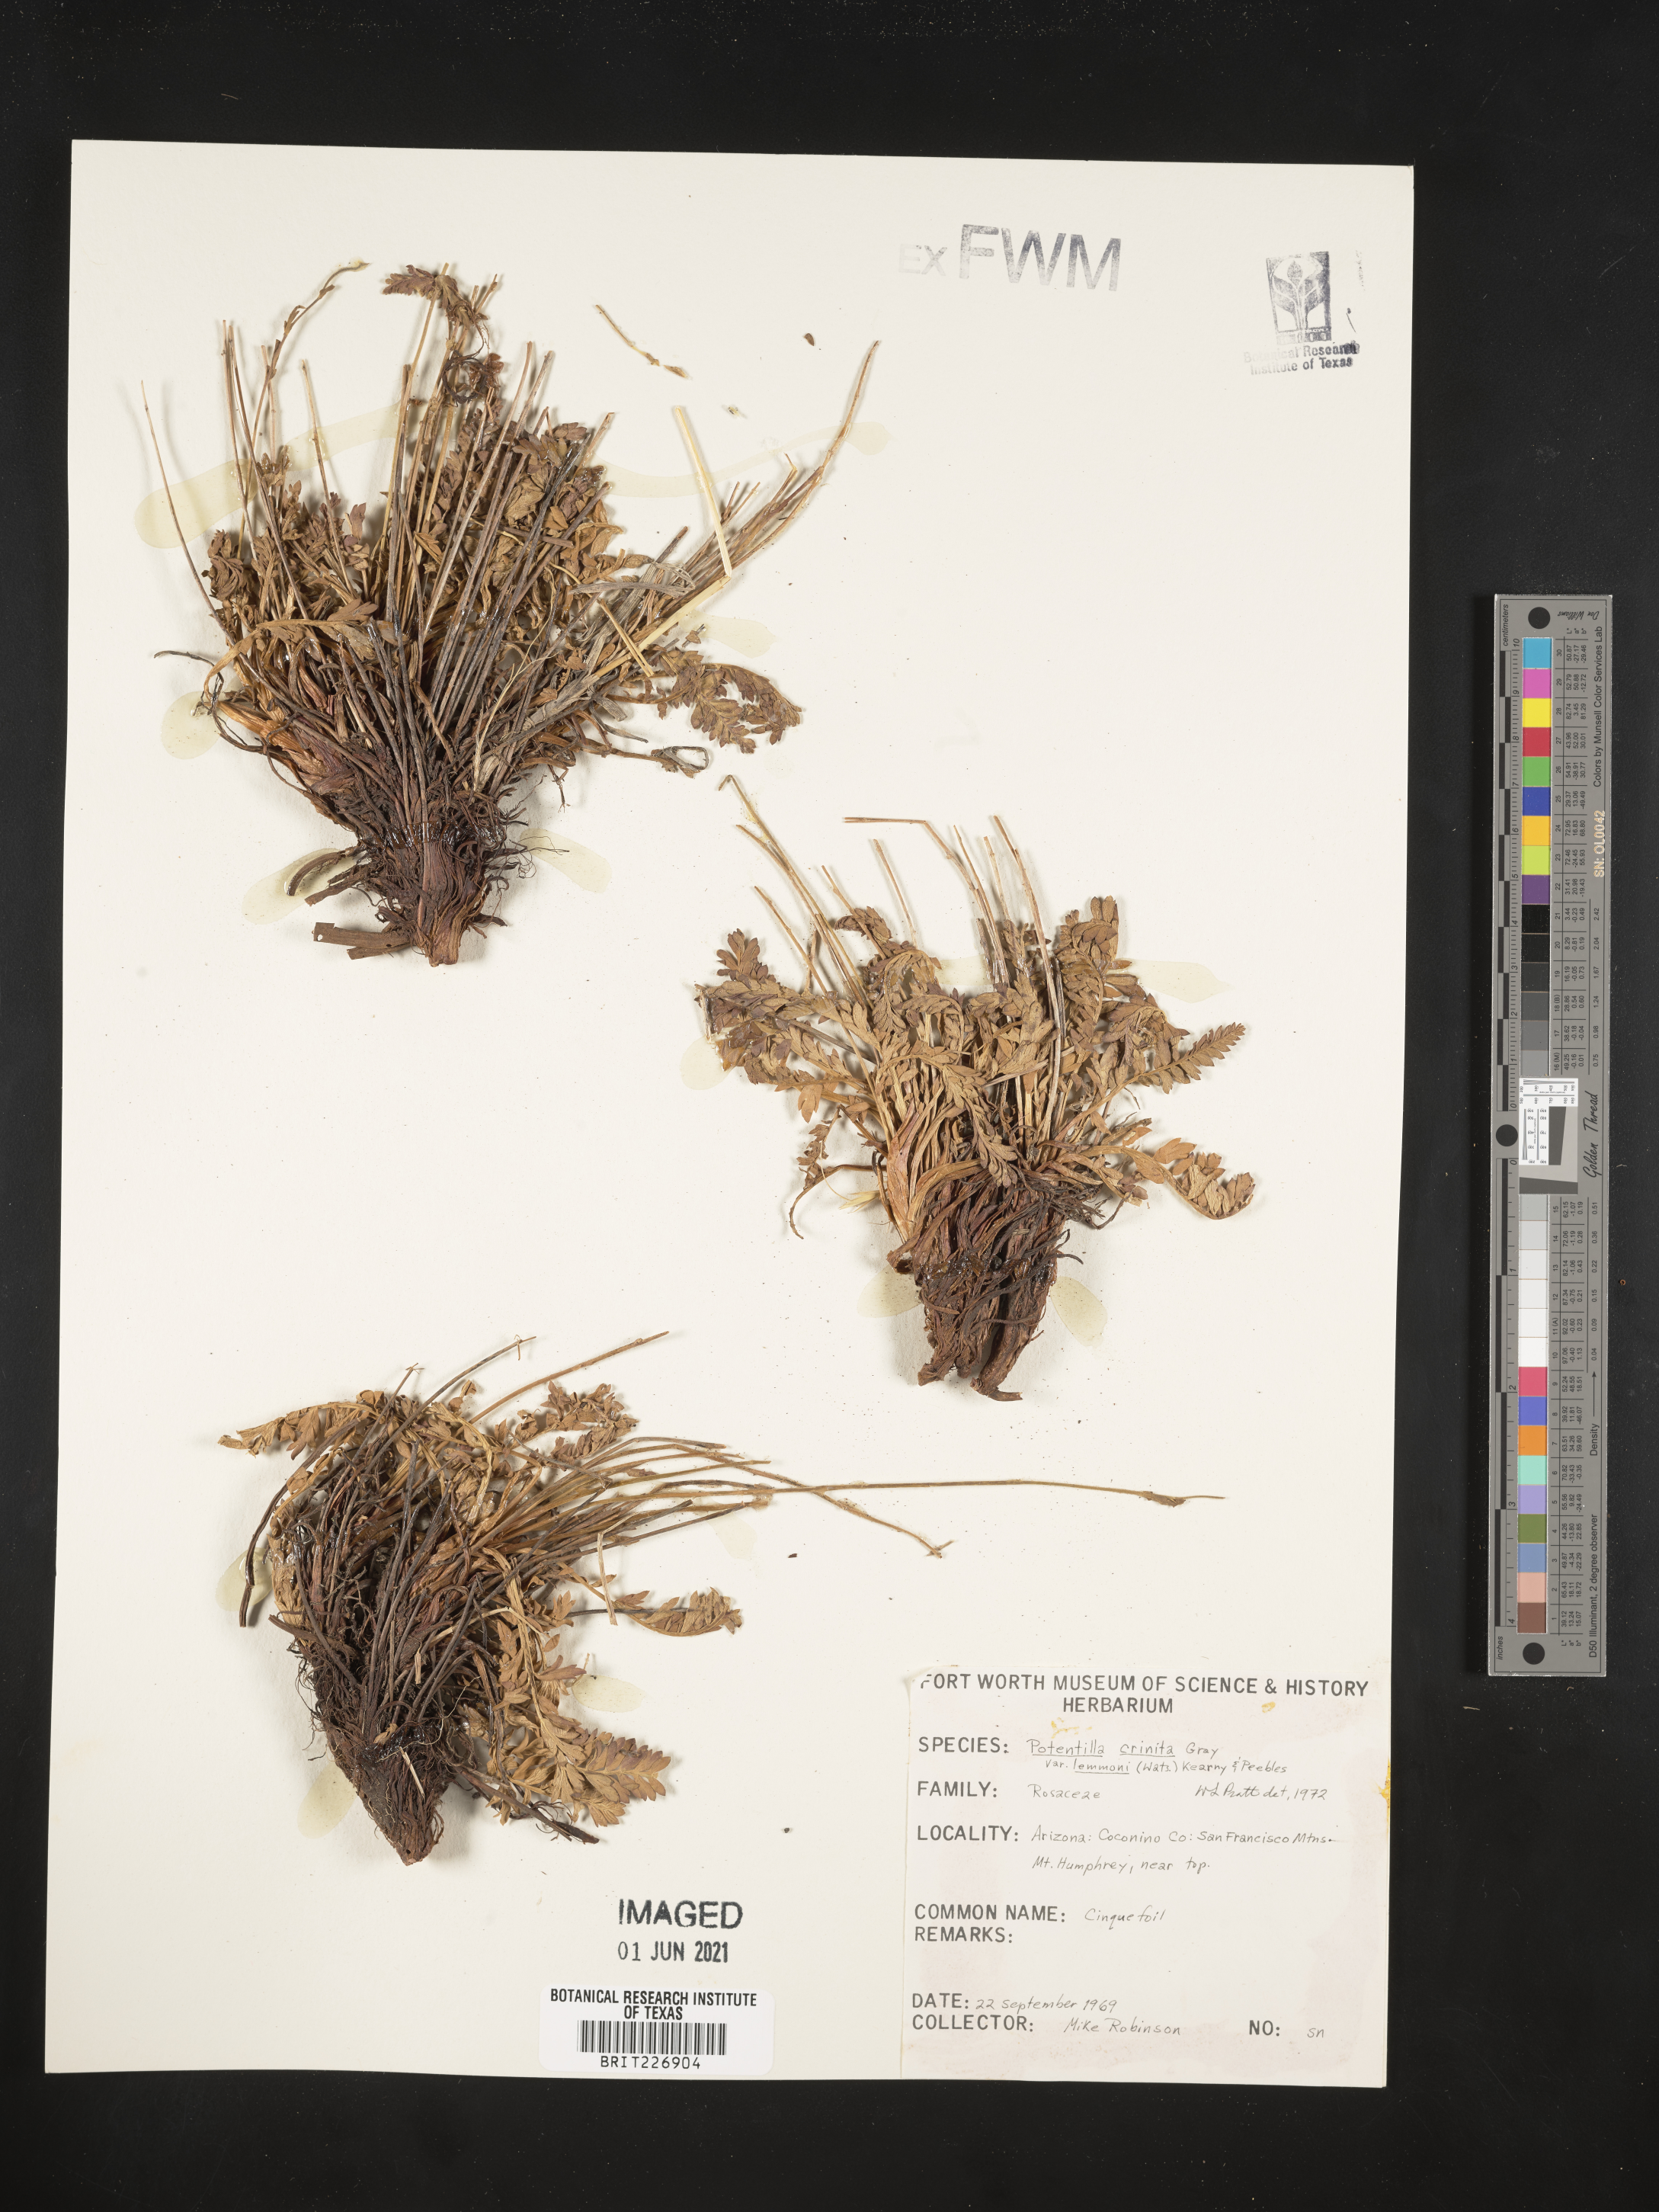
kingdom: Plantae
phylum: Tracheophyta
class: Magnoliopsida
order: Rosales
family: Rosaceae
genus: Potentilla
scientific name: Potentilla crinita
